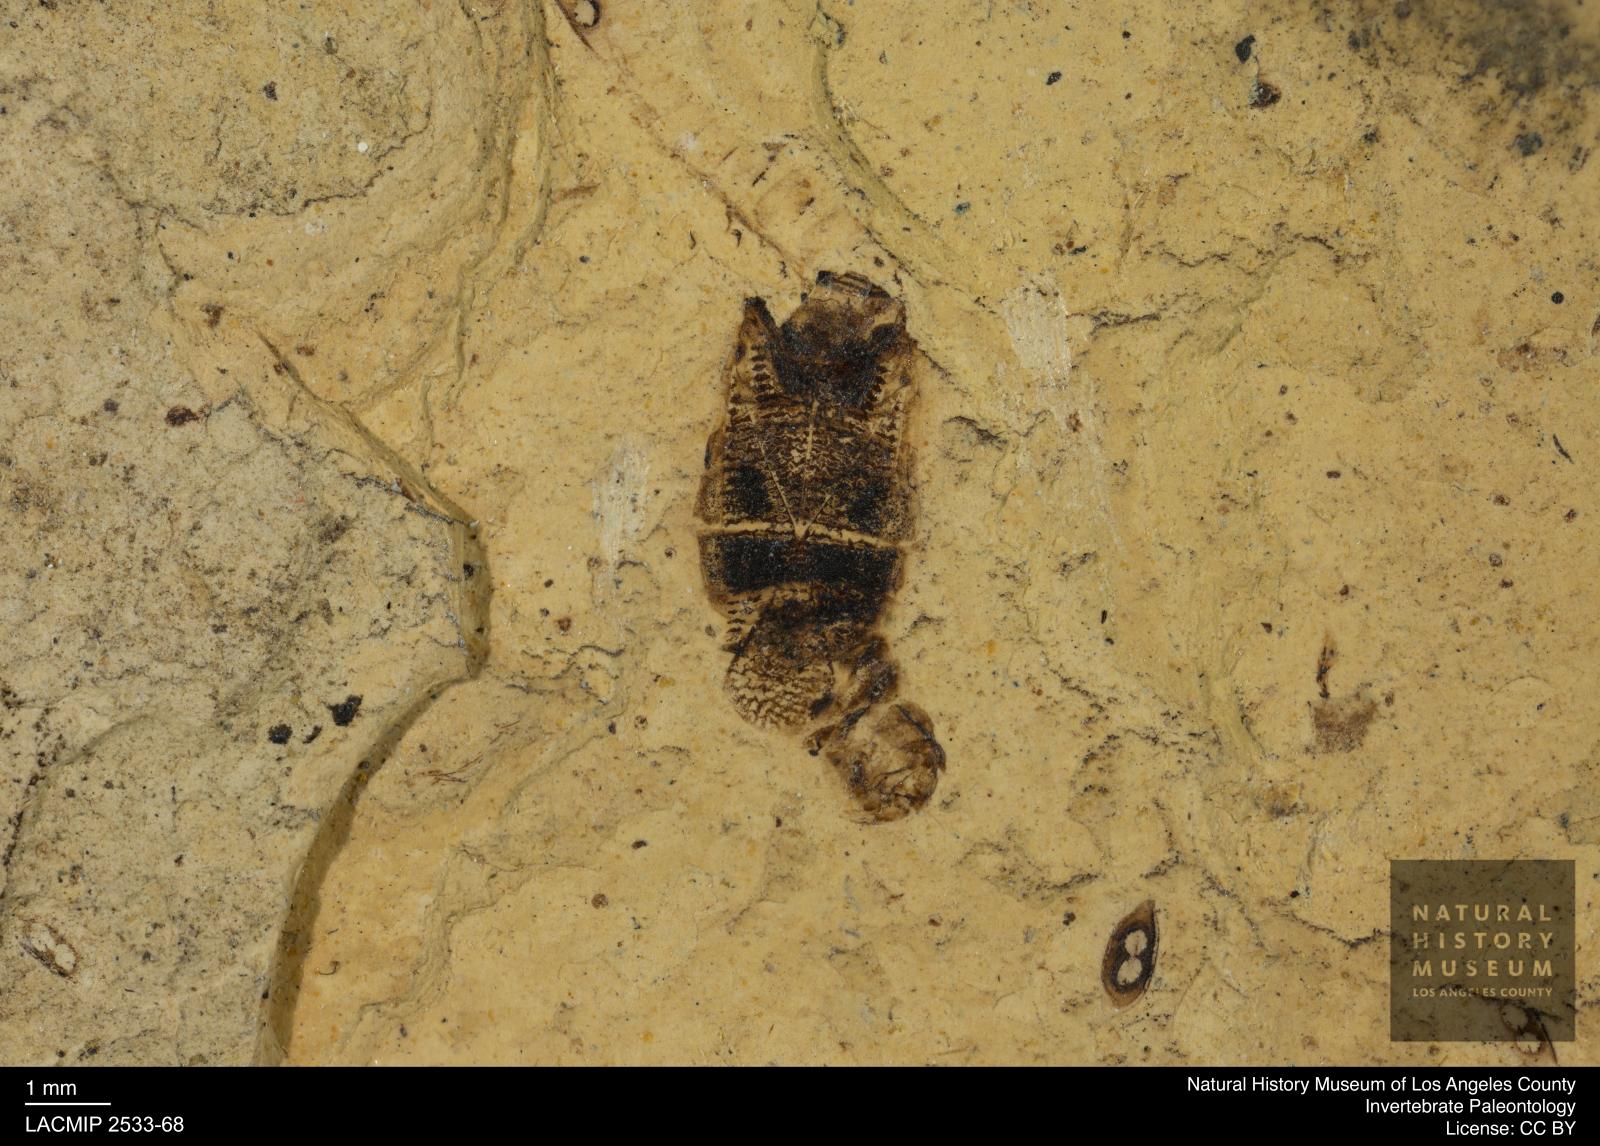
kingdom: Animalia
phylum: Arthropoda
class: Insecta
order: Hemiptera
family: Corixidae
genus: Corixa
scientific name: Corixa
